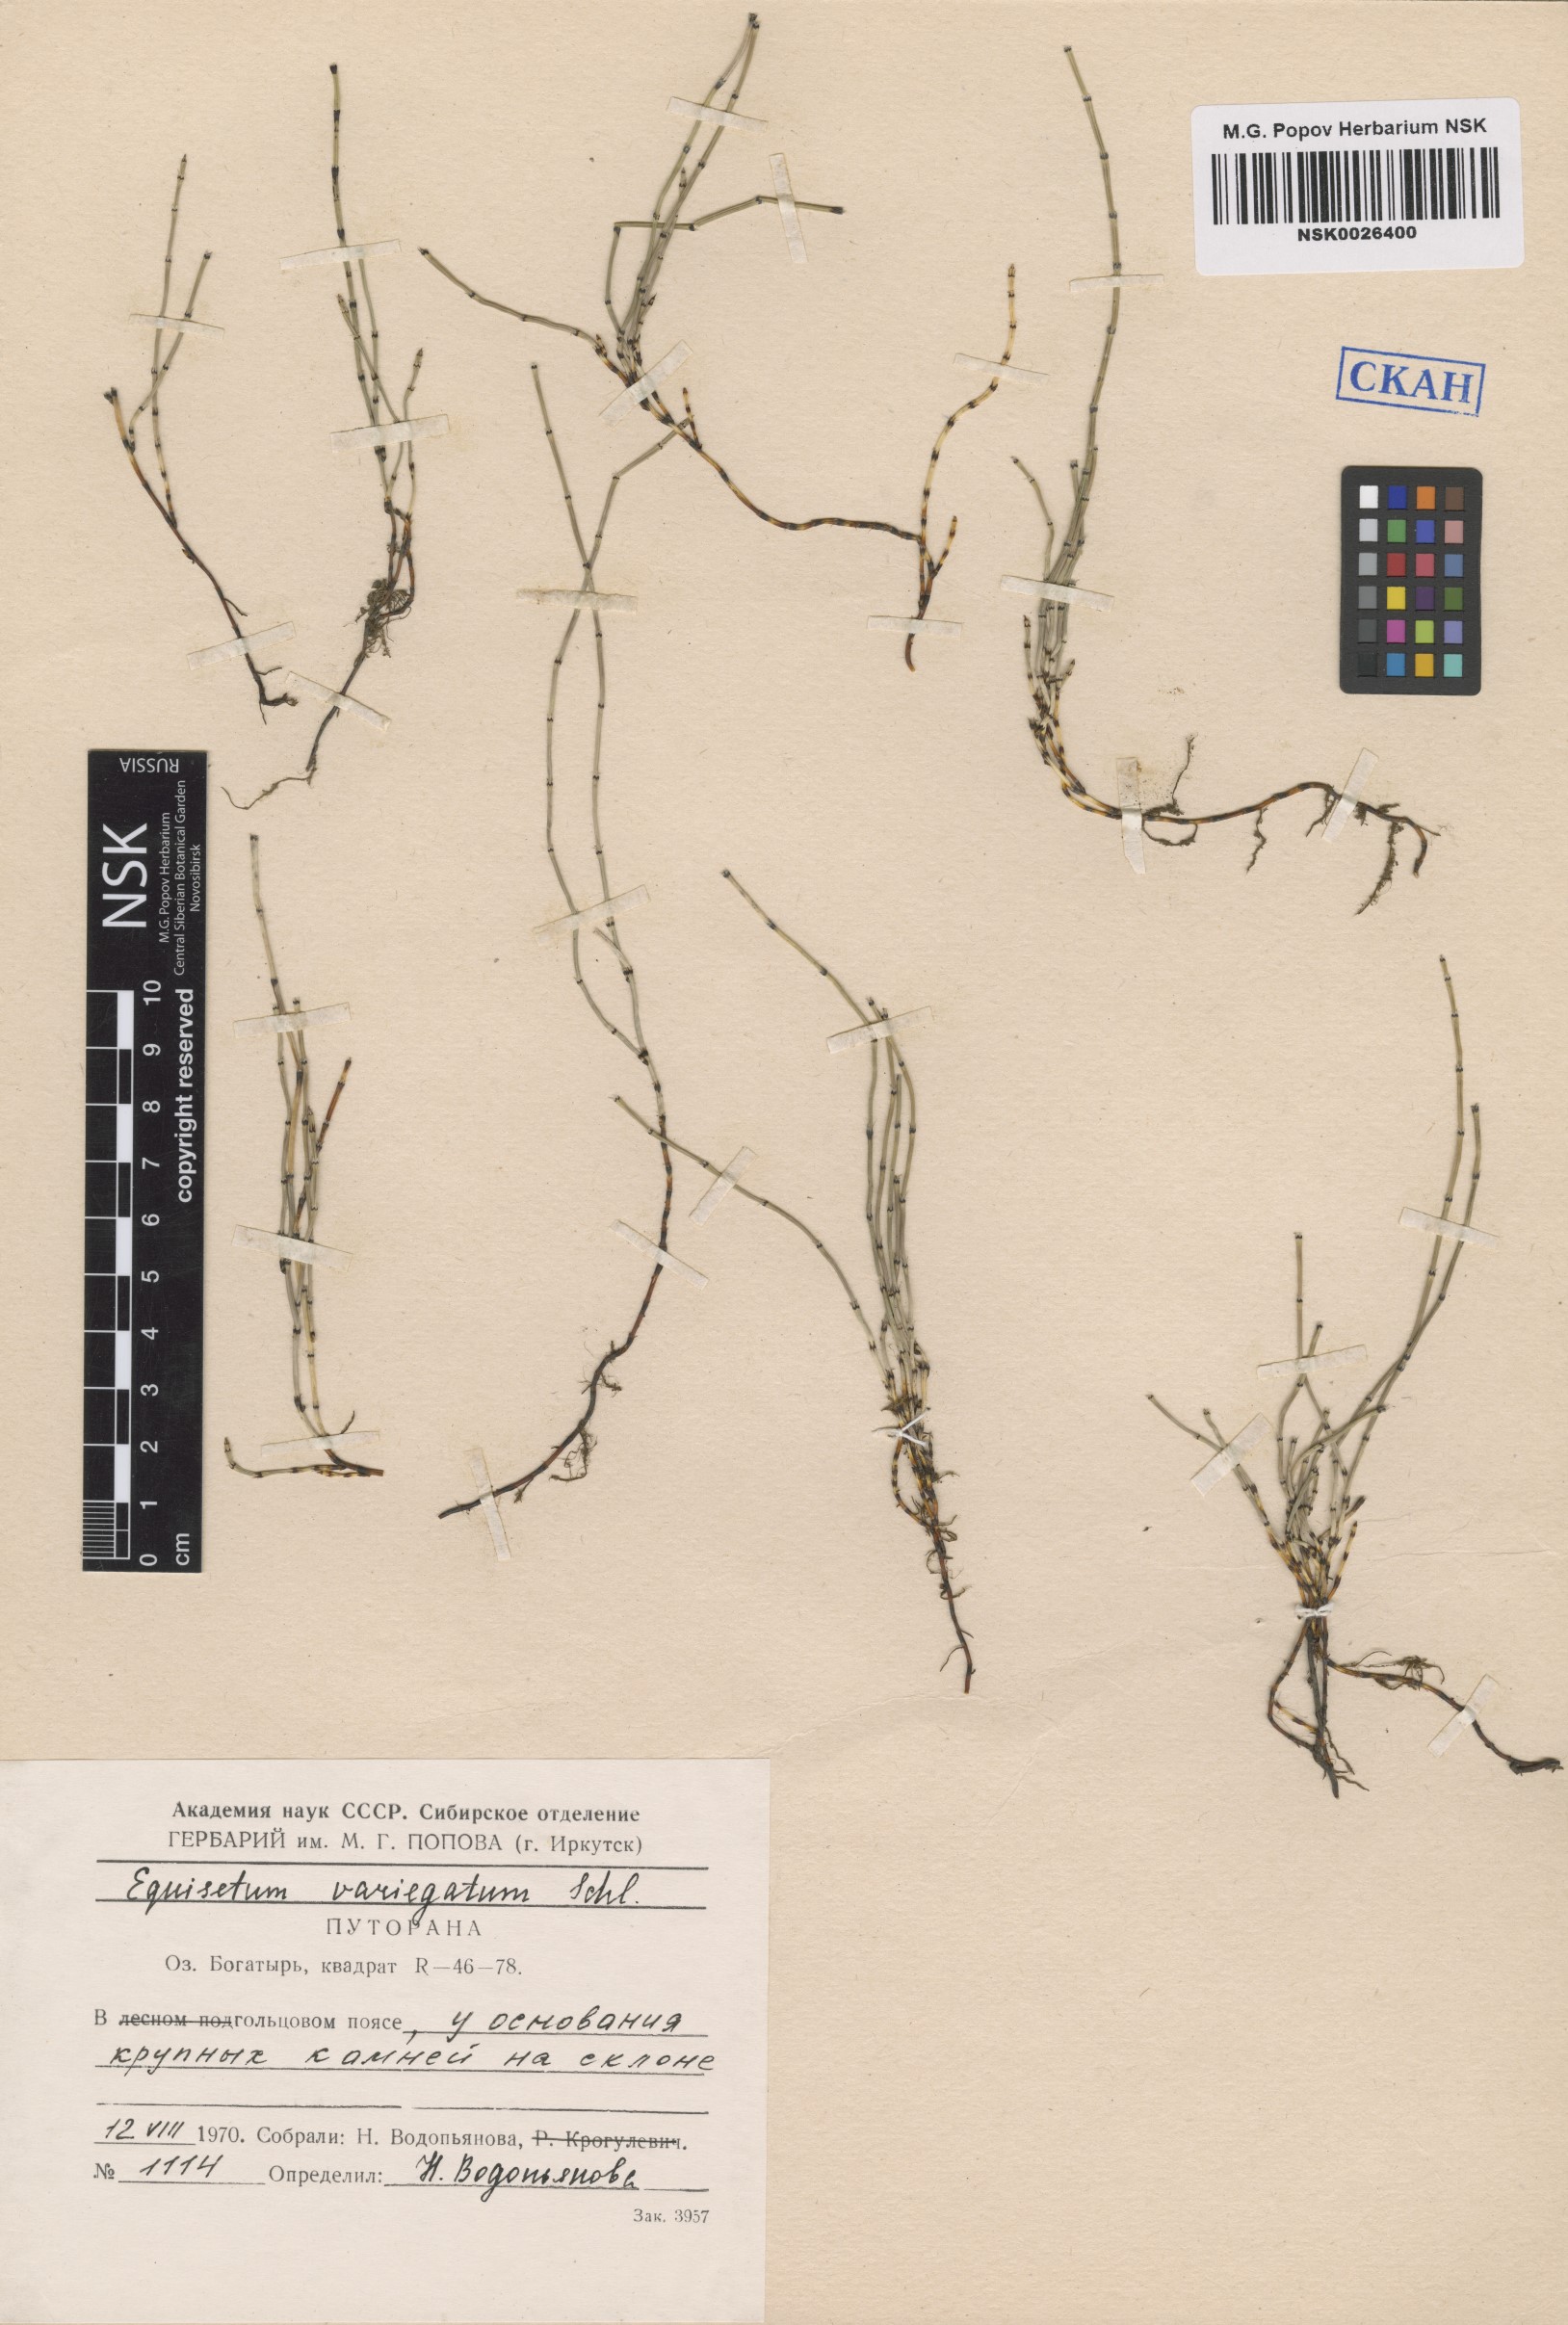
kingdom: Plantae
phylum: Tracheophyta
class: Polypodiopsida
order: Equisetales
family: Equisetaceae
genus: Equisetum
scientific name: Equisetum variegatum
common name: Variegated horsetail
